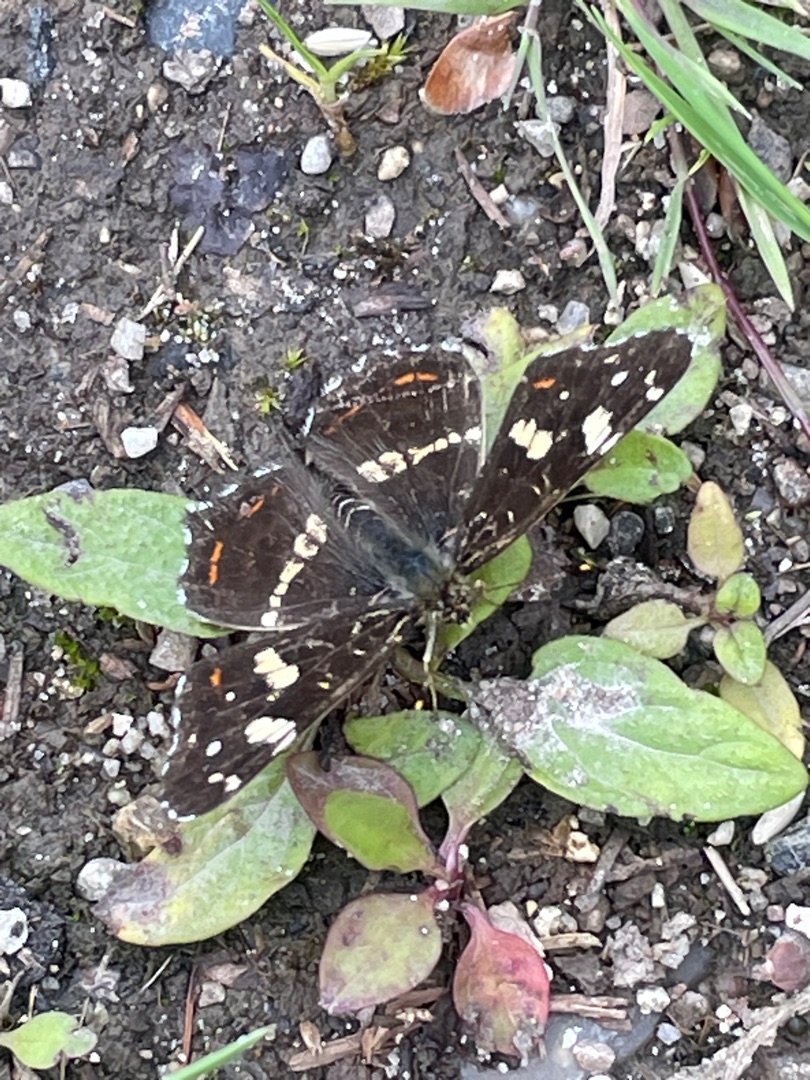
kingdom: Animalia
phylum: Arthropoda
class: Insecta
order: Lepidoptera
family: Nymphalidae
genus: Araschnia
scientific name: Araschnia levana
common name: Nældesommerfugl
